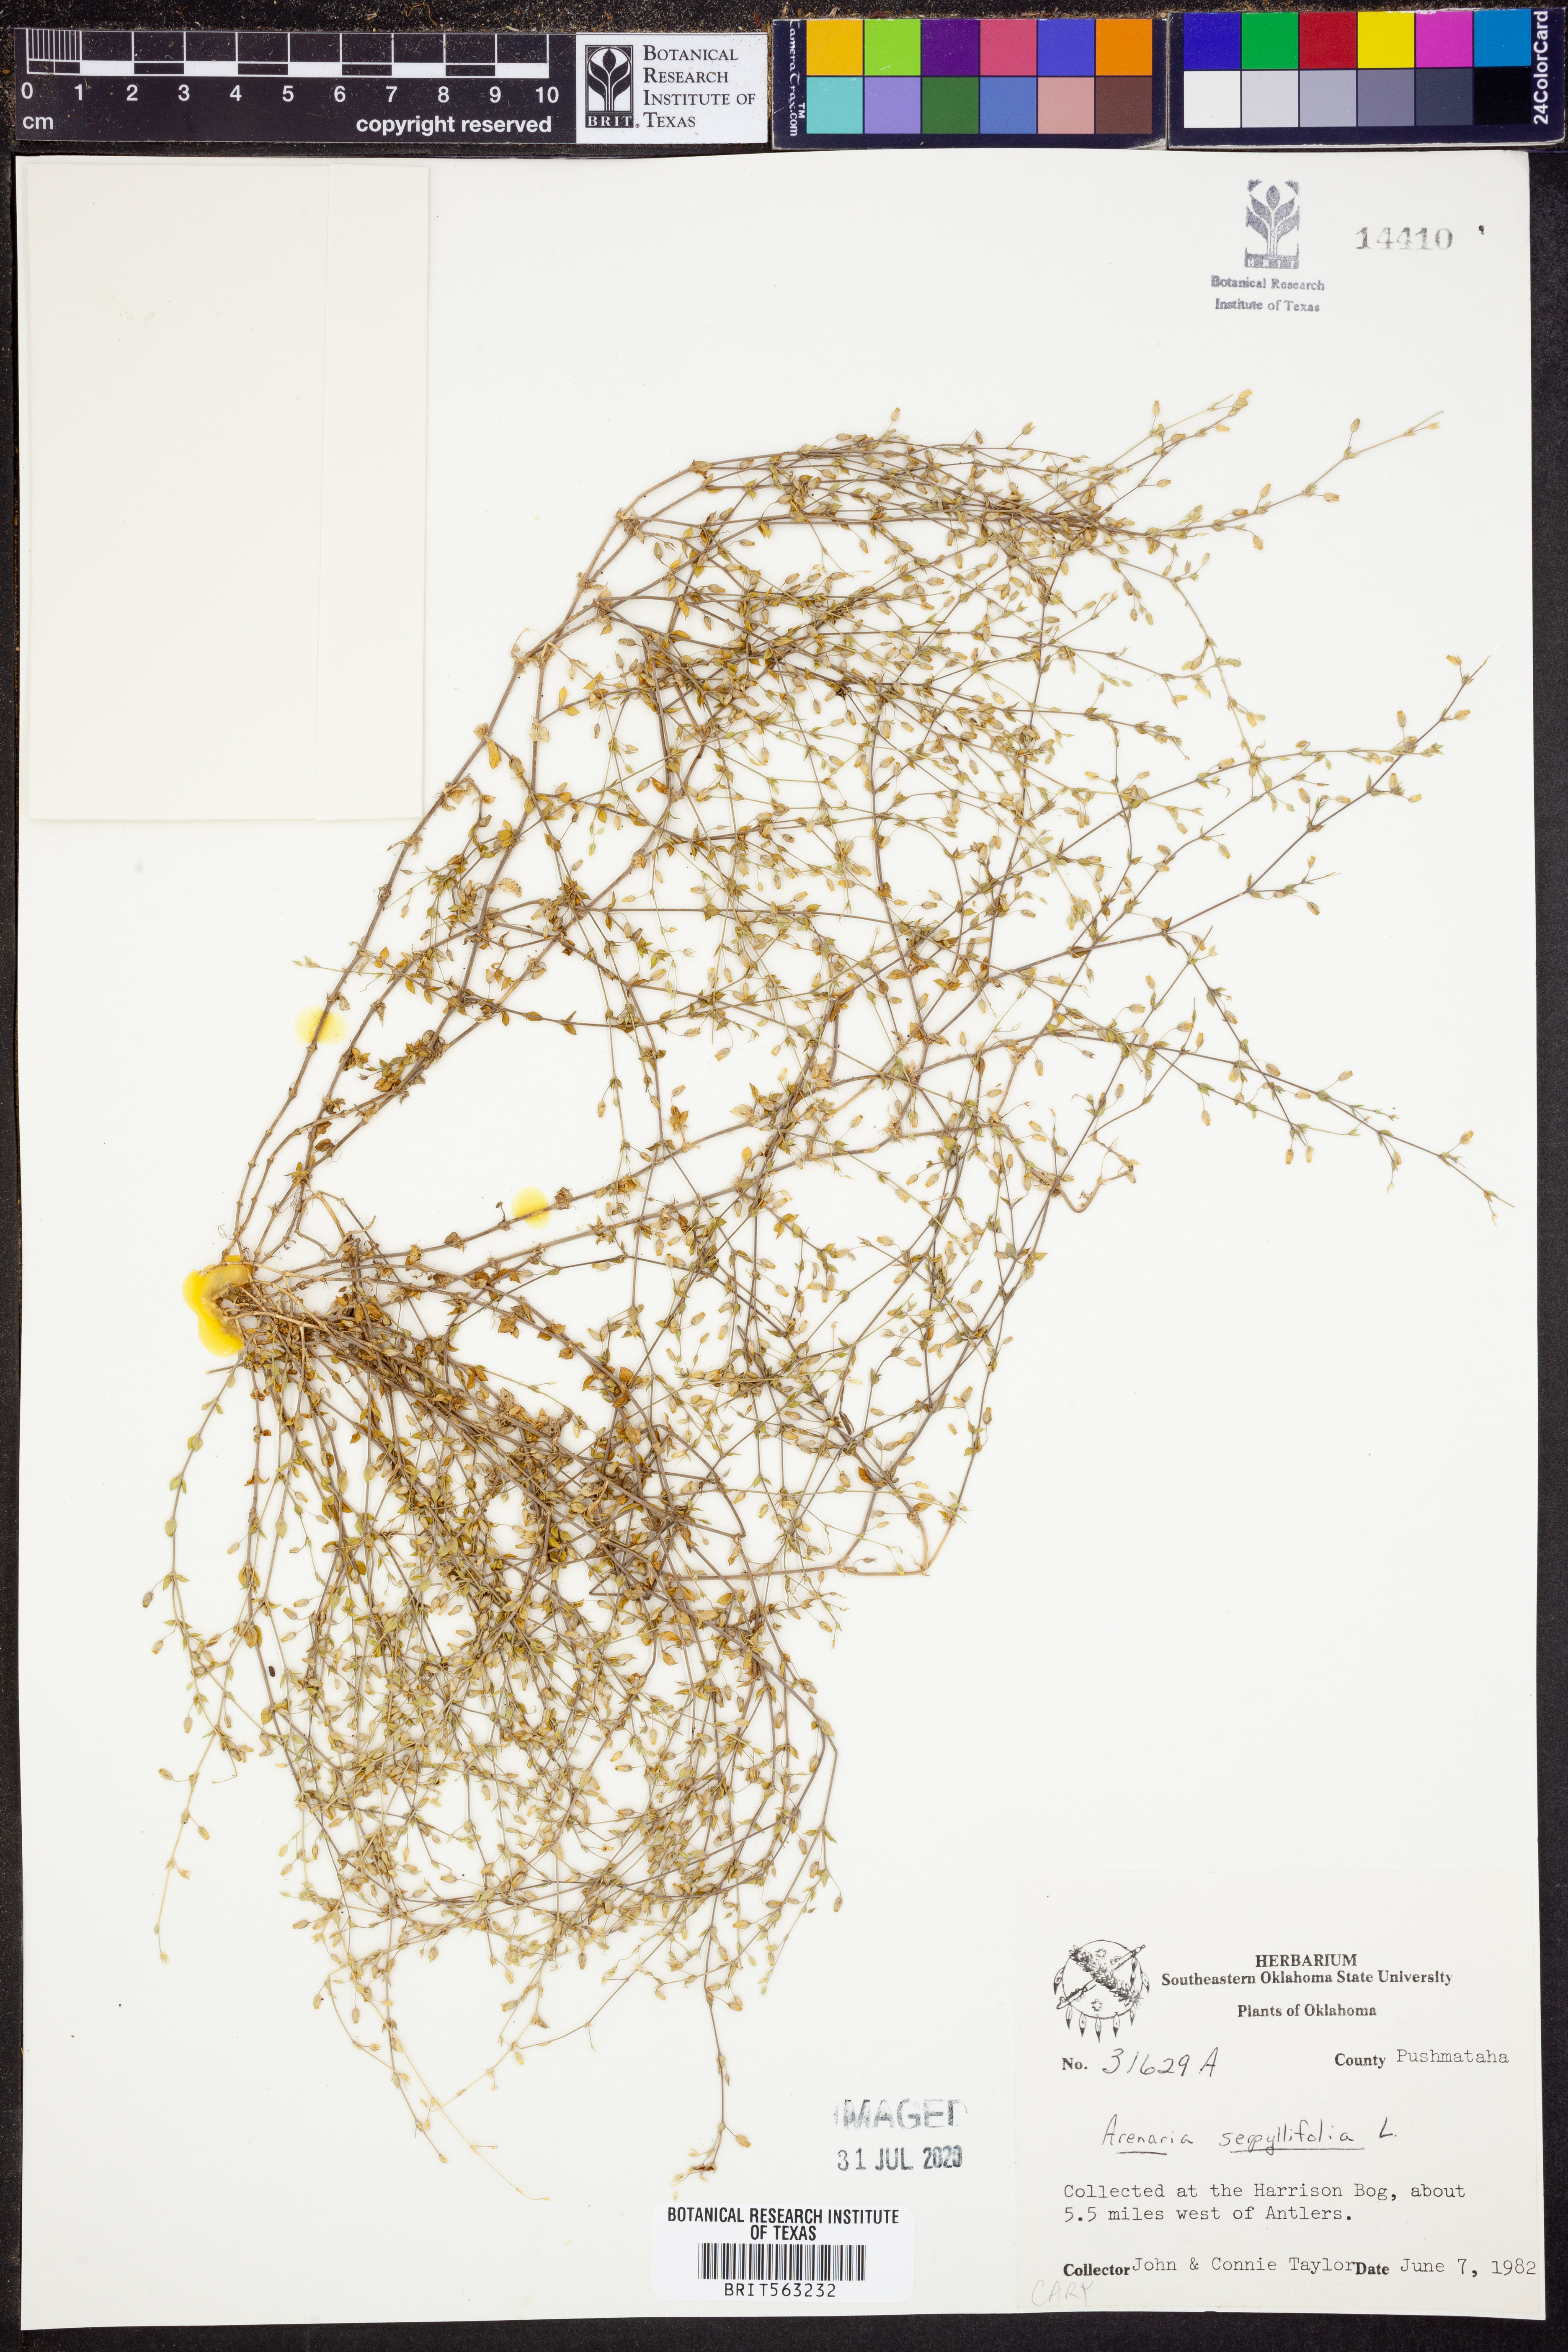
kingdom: Plantae
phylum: Tracheophyta
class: Magnoliopsida
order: Caryophyllales
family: Caryophyllaceae
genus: Arenaria
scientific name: Arenaria serpyllifolia
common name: Thyme-leaved sandwort
